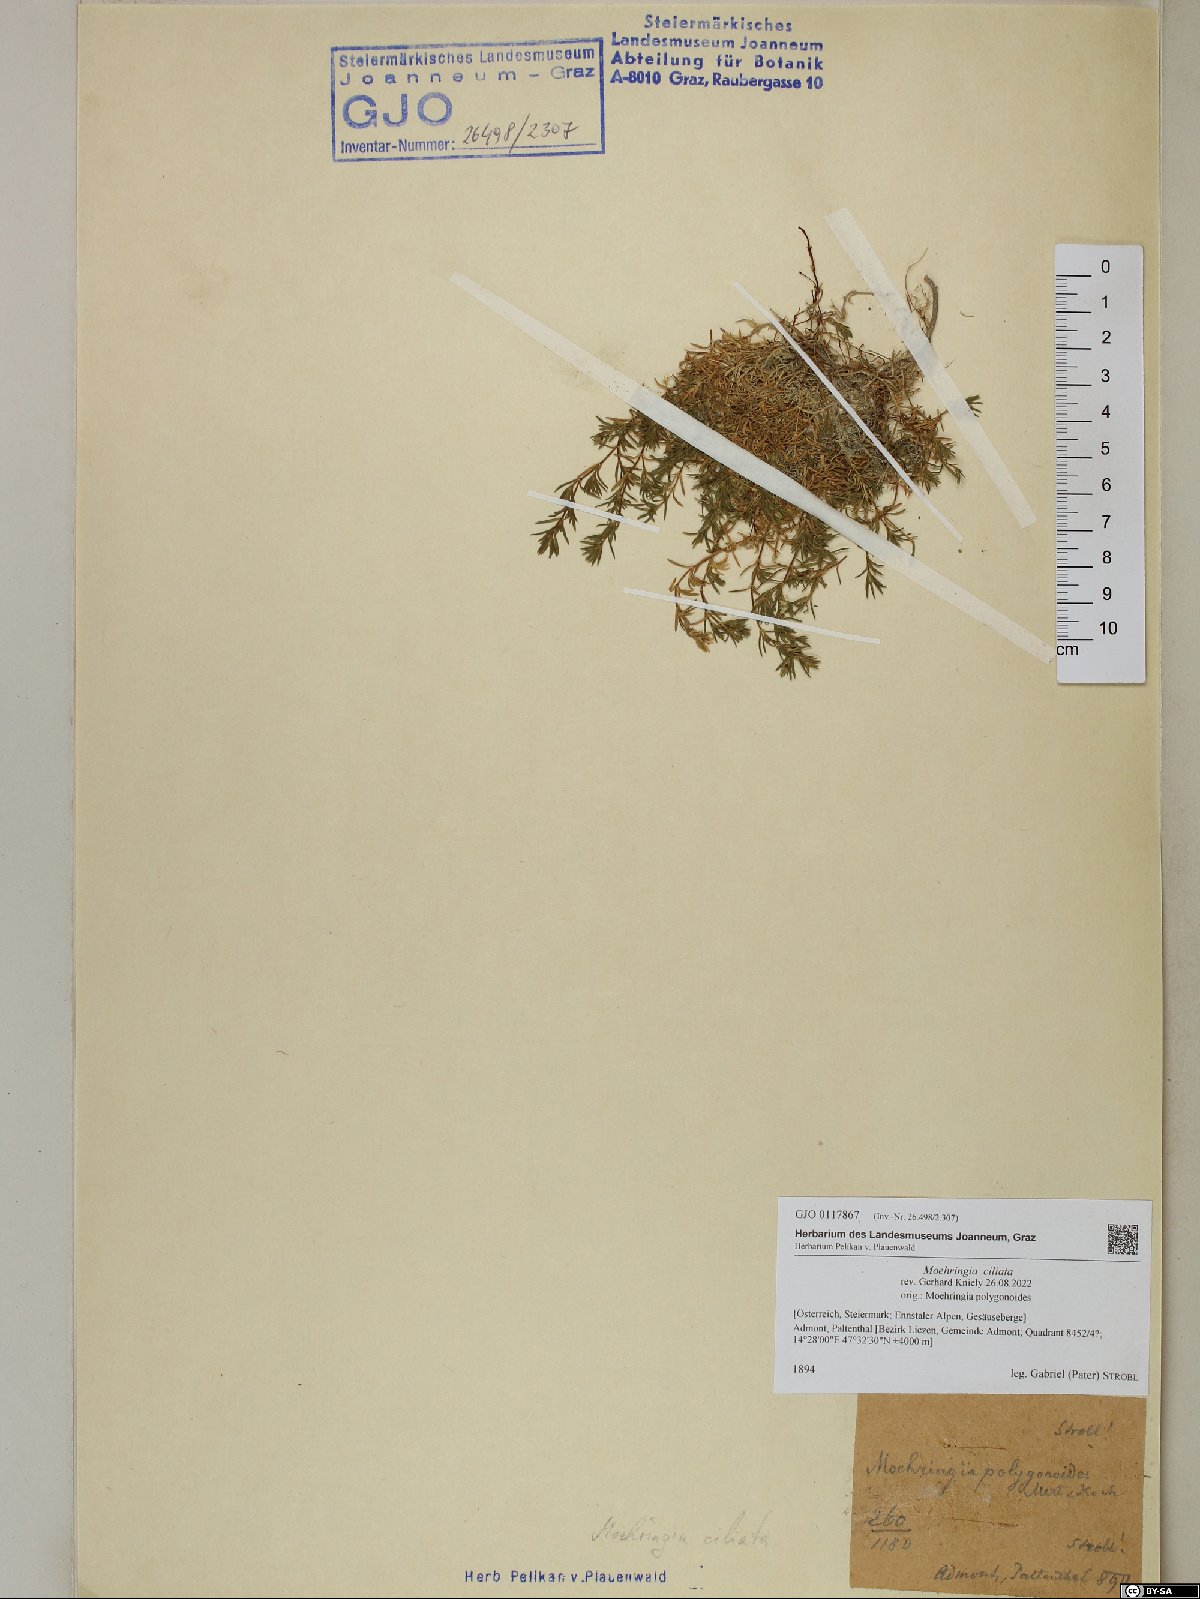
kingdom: Plantae
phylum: Tracheophyta
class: Magnoliopsida
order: Caryophyllales
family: Caryophyllaceae
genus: Moehringia
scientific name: Moehringia ciliata
